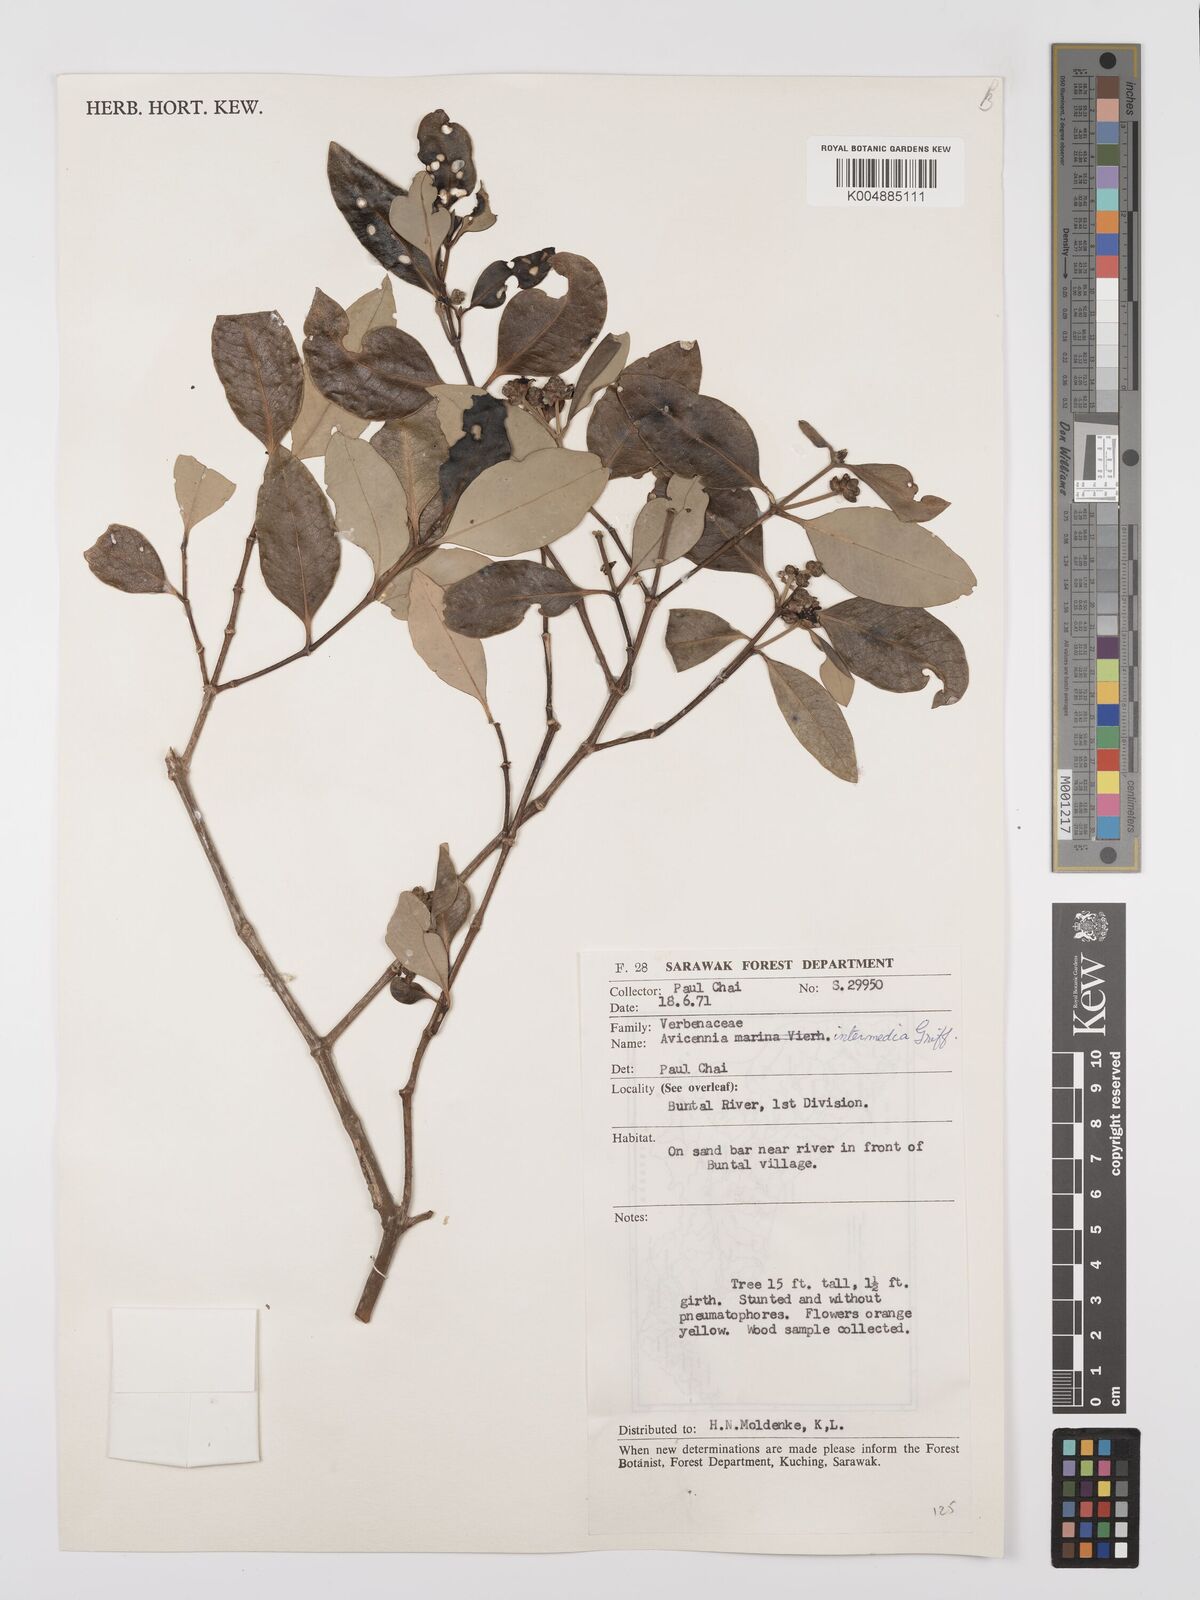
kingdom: Plantae
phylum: Tracheophyta
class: Magnoliopsida
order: Lamiales
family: Acanthaceae
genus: Avicennia
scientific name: Avicennia marina
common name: Gray mangrove
